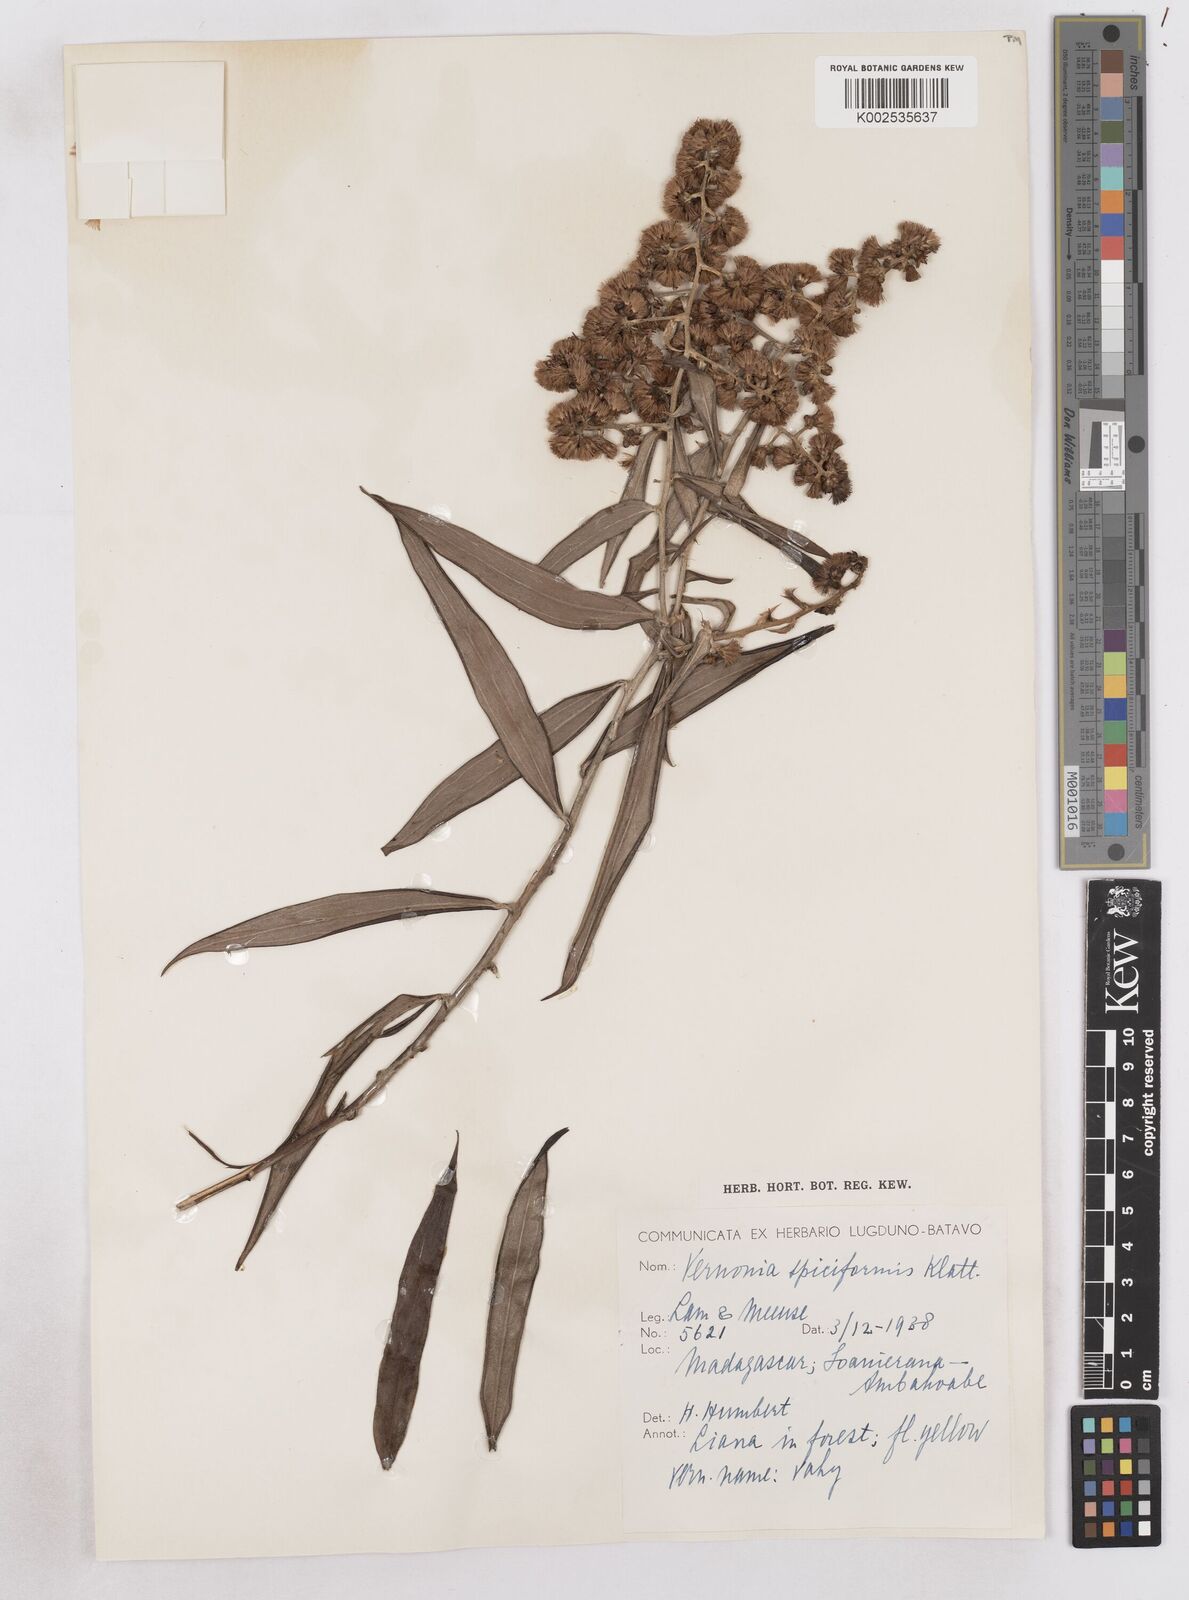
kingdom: Plantae
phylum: Tracheophyta
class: Magnoliopsida
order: Asterales
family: Asteraceae
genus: Distephanus
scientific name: Distephanus spiciformis
